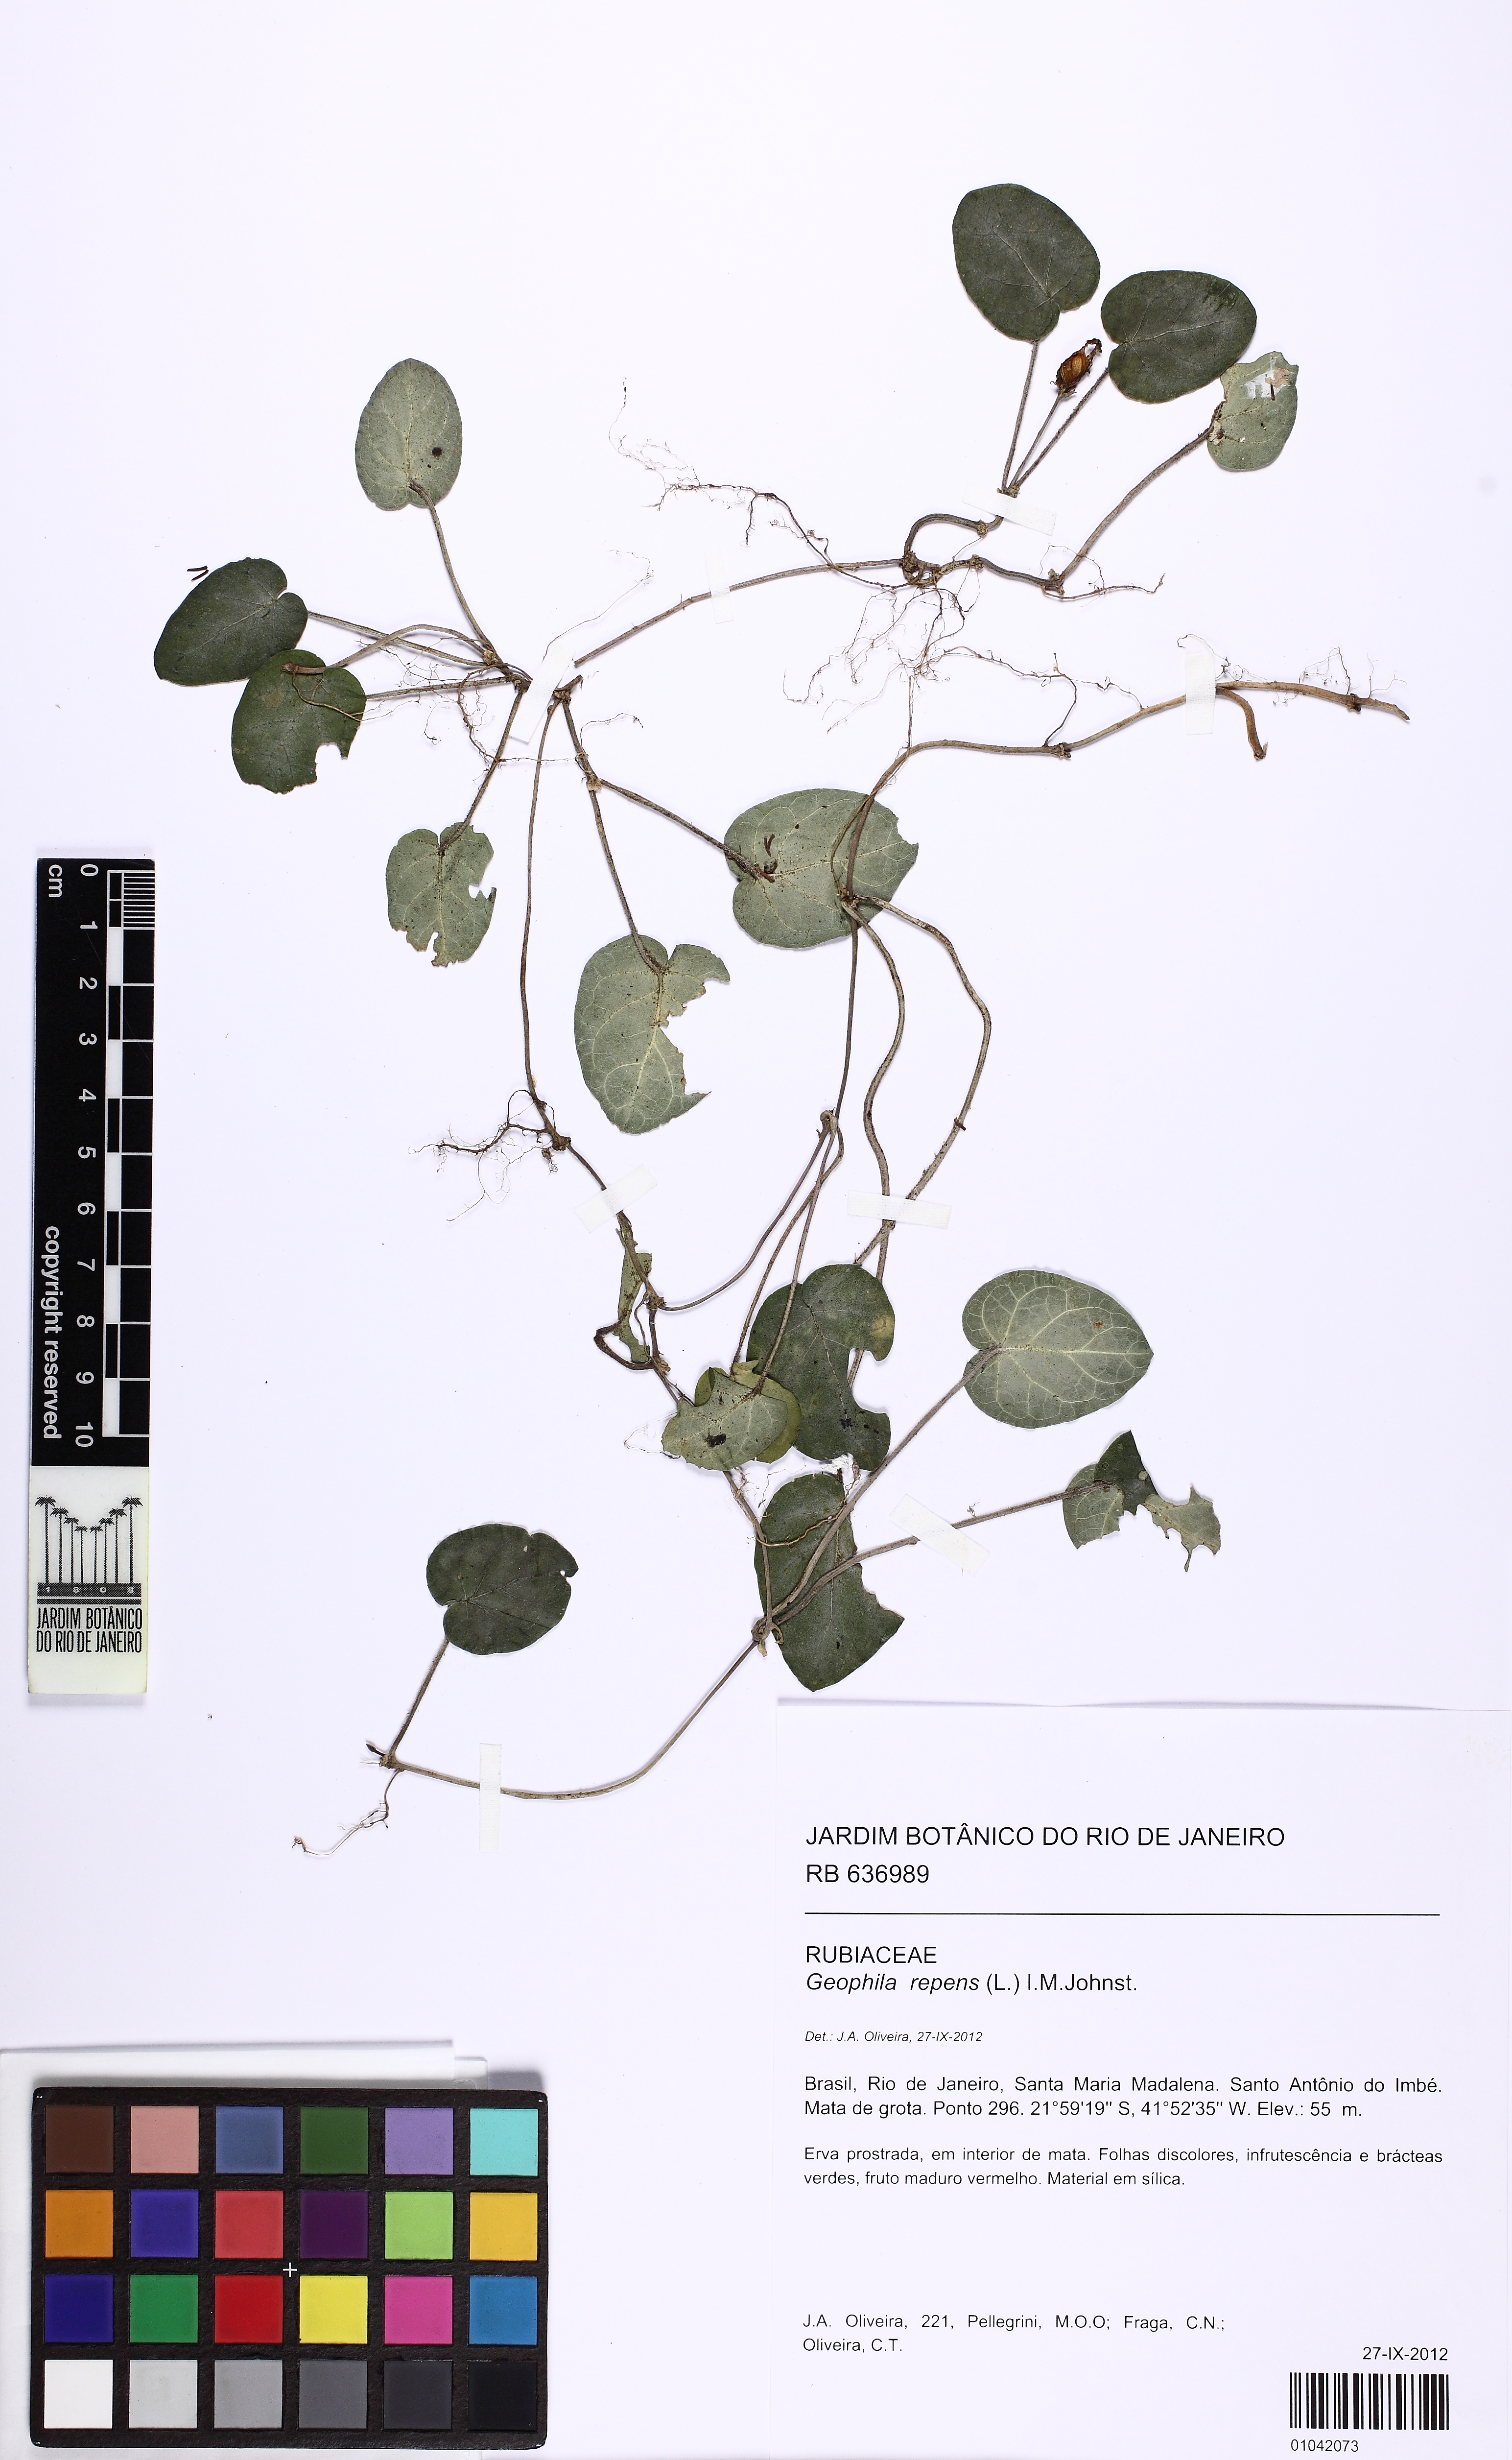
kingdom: Plantae
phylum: Tracheophyta
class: Magnoliopsida
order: Gentianales
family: Rubiaceae
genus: Geophila
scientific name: Geophila repens
